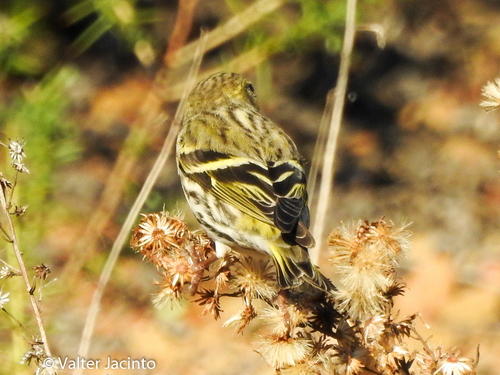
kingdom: Animalia
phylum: Chordata
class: Aves
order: Passeriformes
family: Fringillidae
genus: Spinus
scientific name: Spinus spinus
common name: Eurasian siskin
